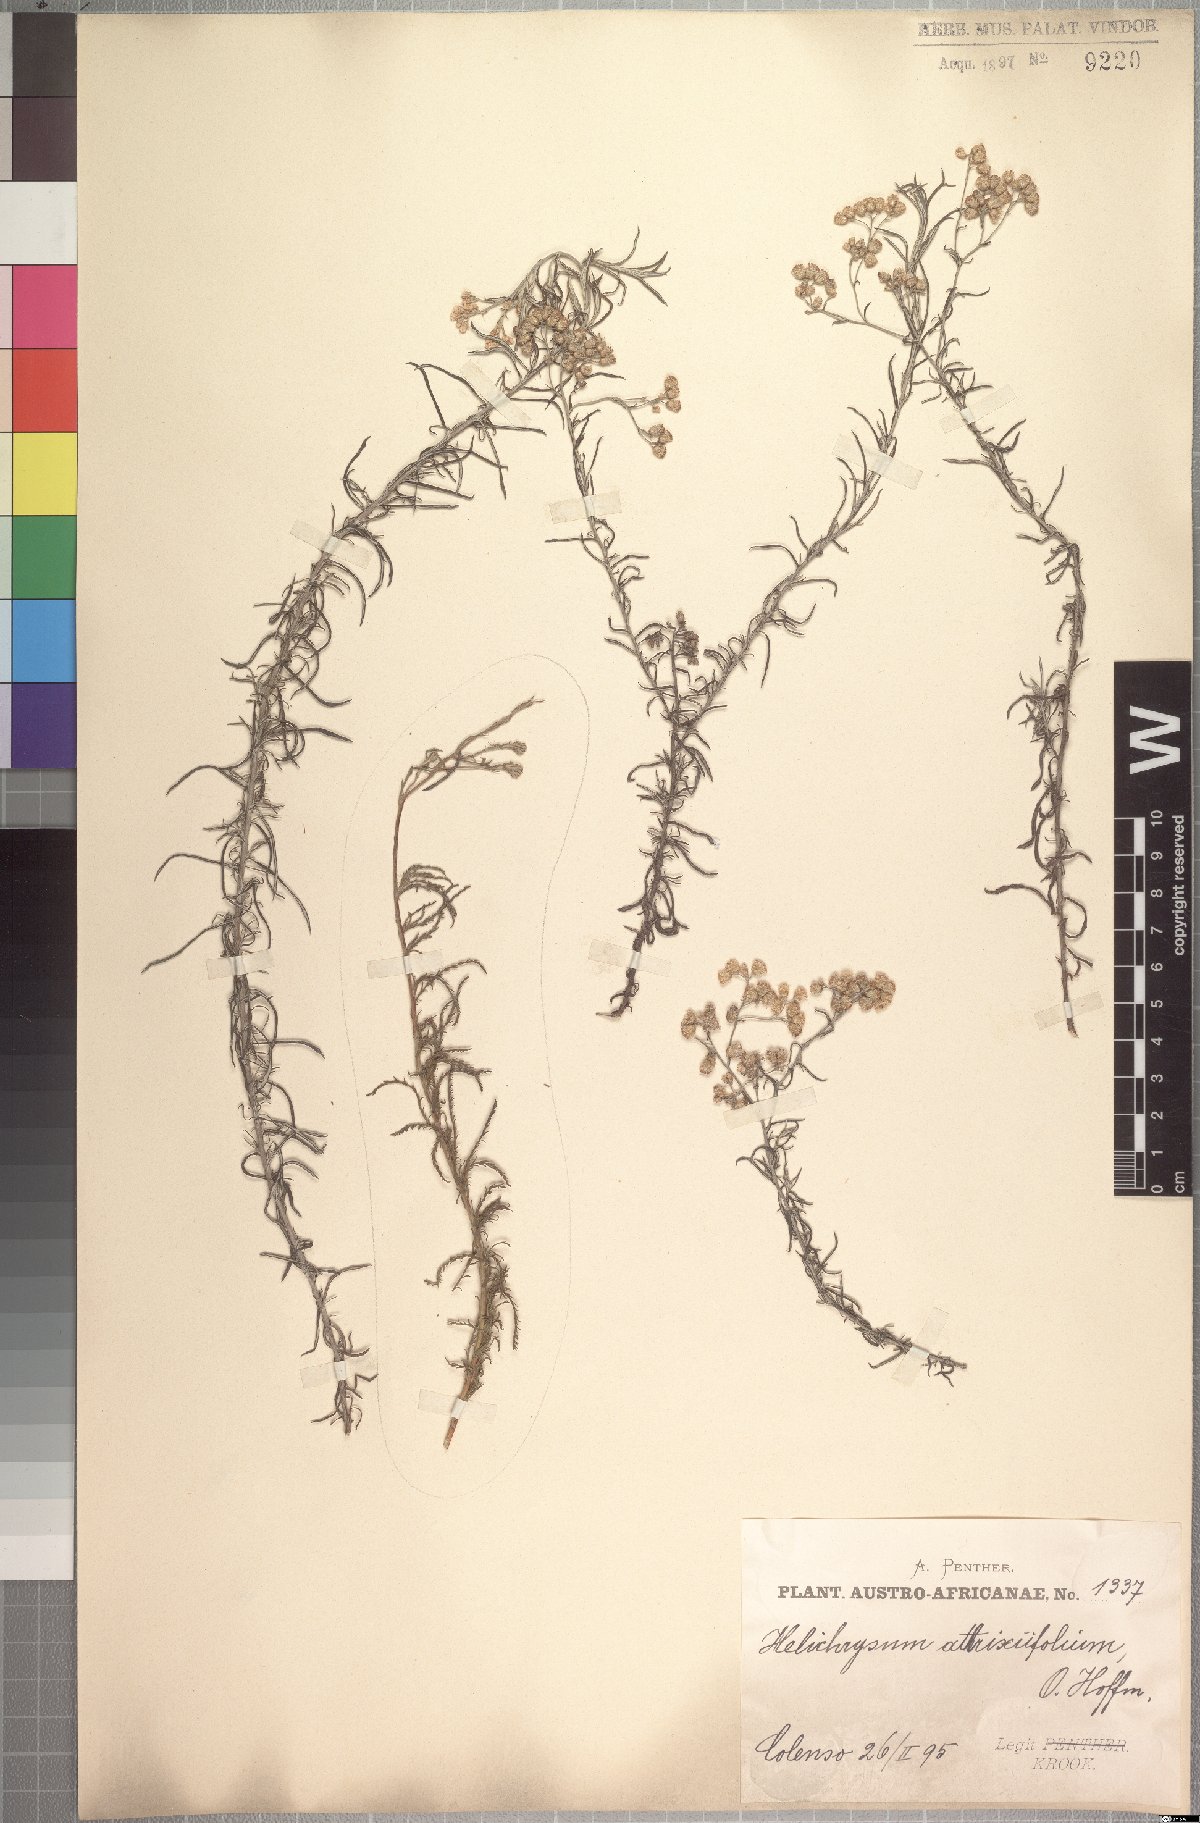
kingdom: Plantae
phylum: Tracheophyta
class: Magnoliopsida
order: Asterales
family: Asteraceae
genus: Helichrysum
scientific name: Helichrysum athrixiifolium
